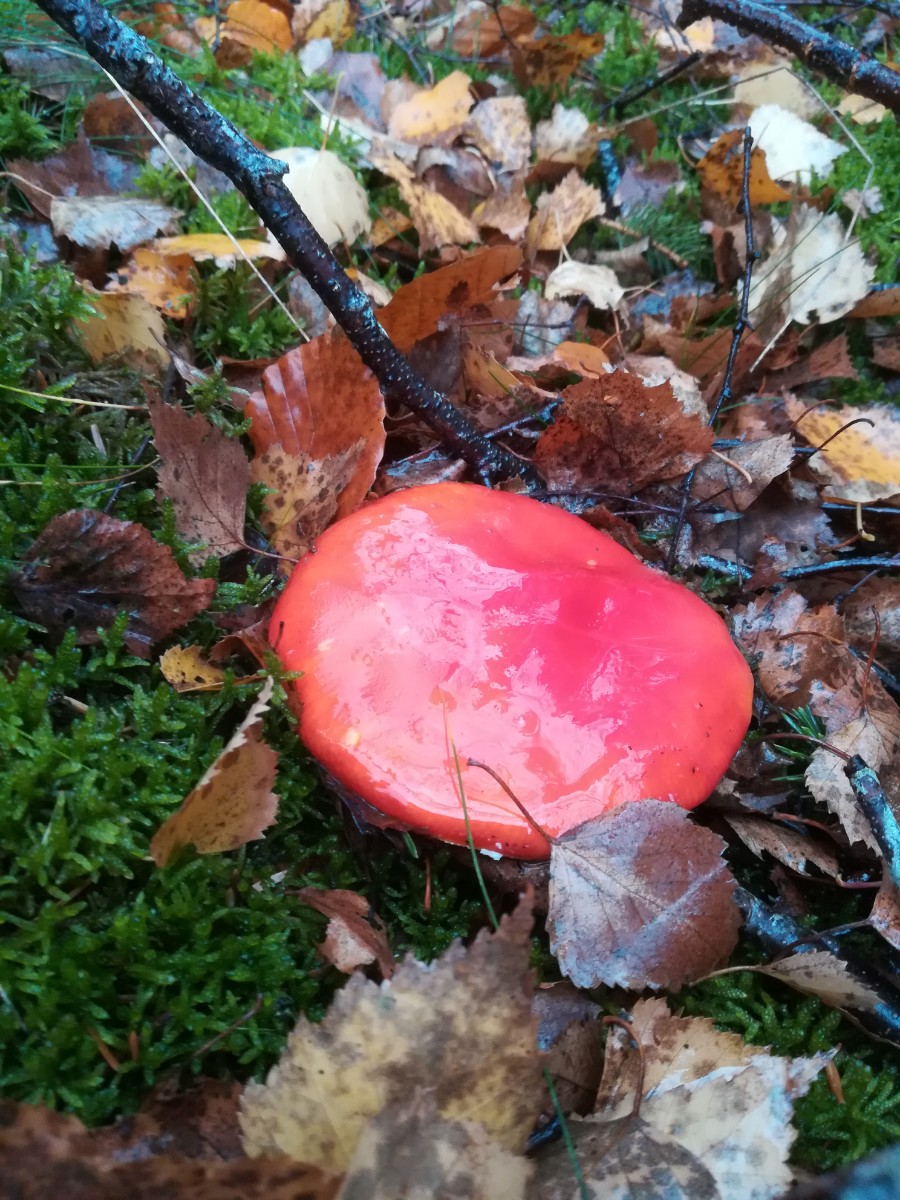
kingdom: Fungi
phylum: Basidiomycota
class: Agaricomycetes
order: Agaricales
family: Amanitaceae
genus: Amanita
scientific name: Amanita muscaria
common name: rød fluesvamp
